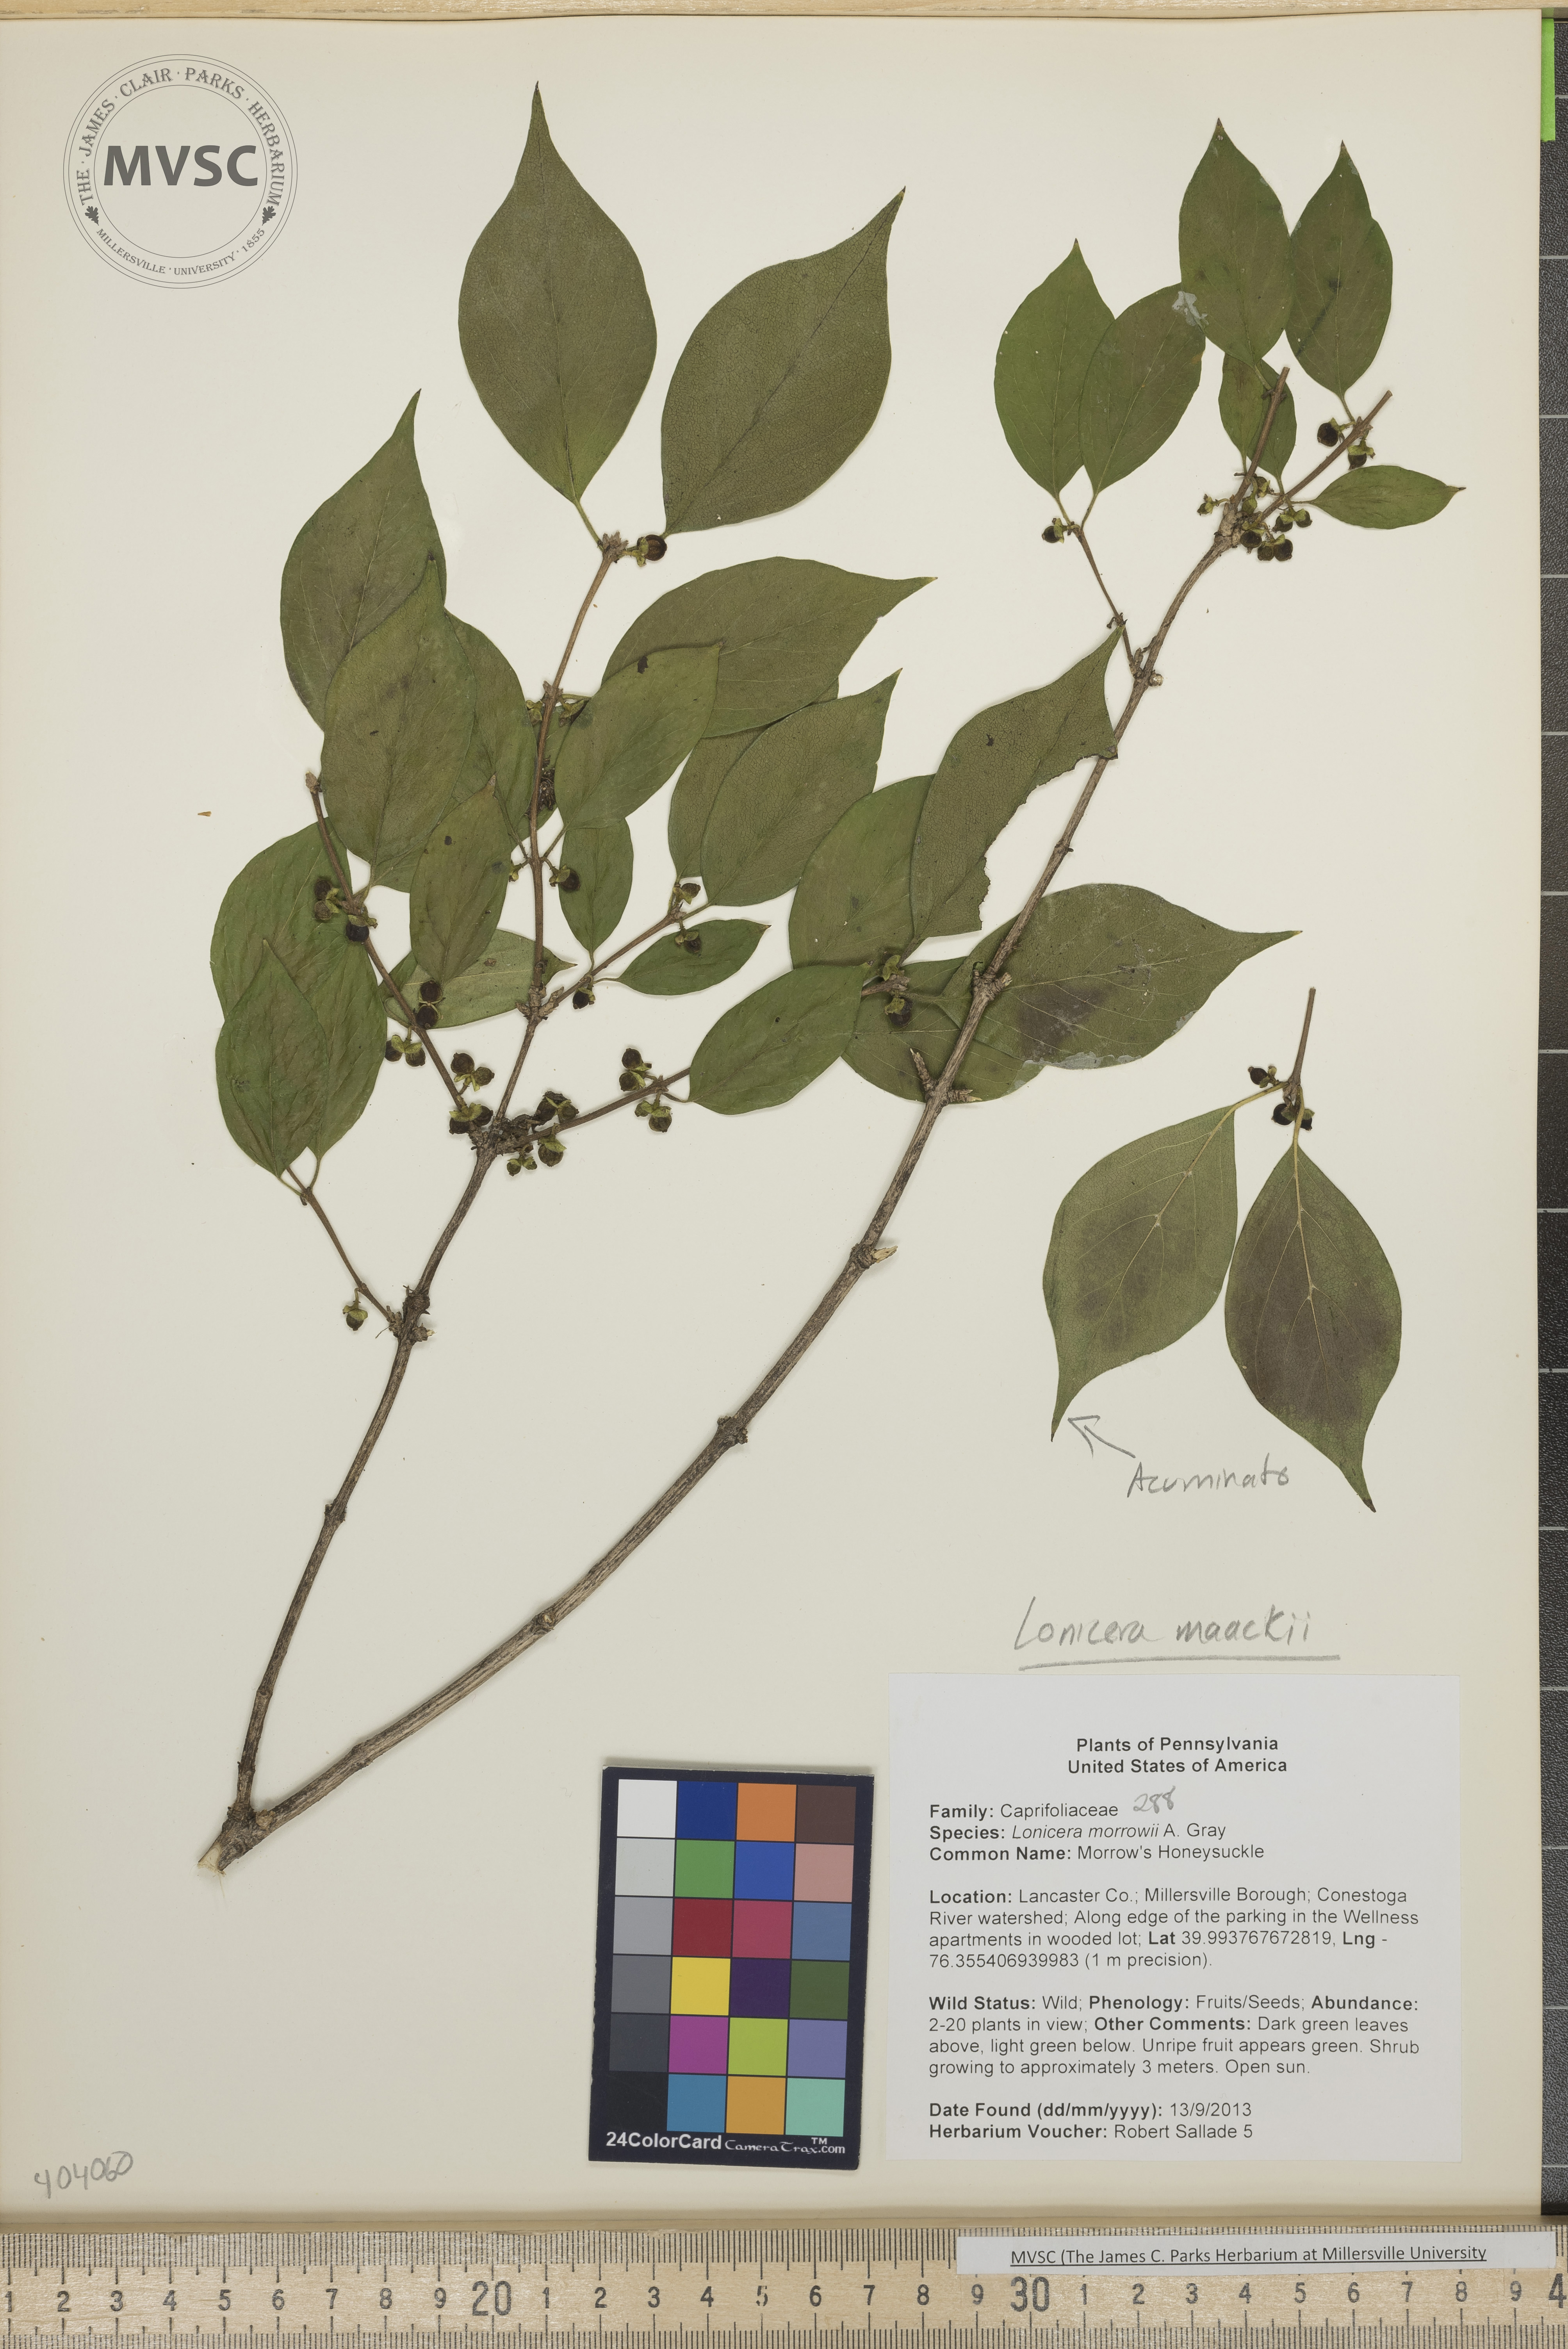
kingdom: Plantae
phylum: Tracheophyta
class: Magnoliopsida
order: Dipsacales
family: Caprifoliaceae
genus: Lonicera
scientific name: Lonicera maackii
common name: Honeysuckle
